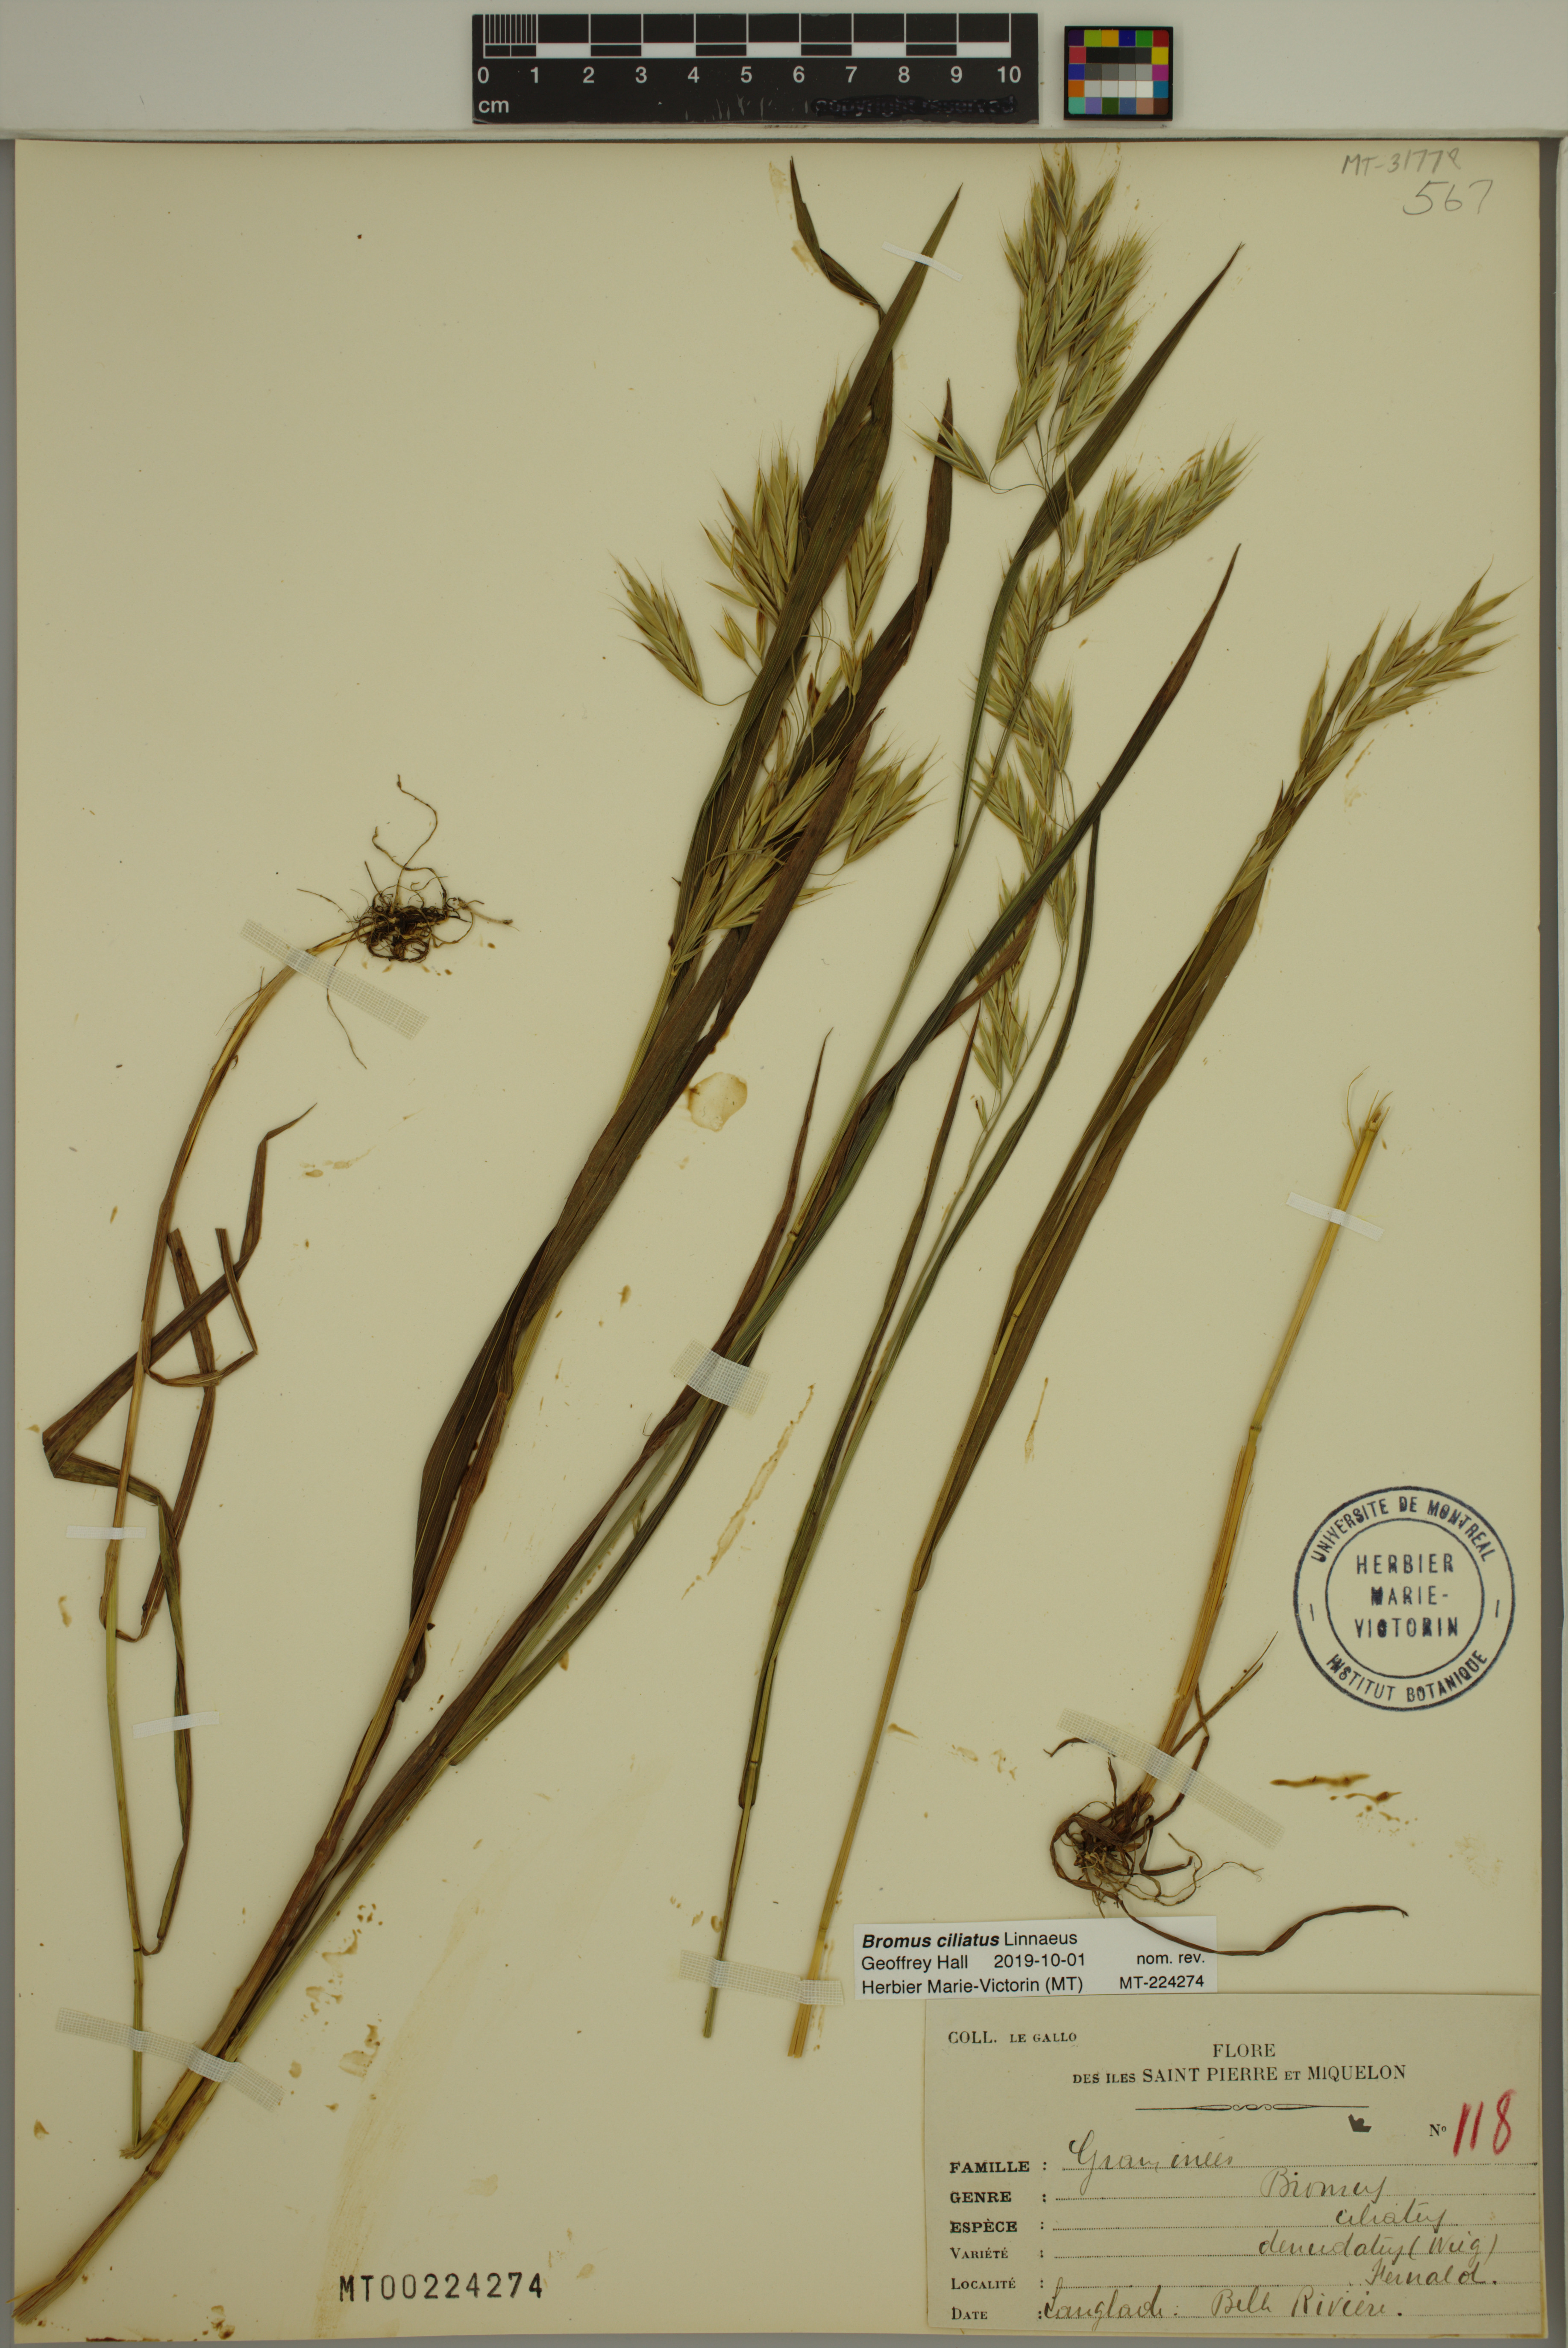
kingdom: Plantae
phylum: Tracheophyta
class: Liliopsida
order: Poales
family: Poaceae
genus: Bromus
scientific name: Bromus ciliatus
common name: Fringe brome
